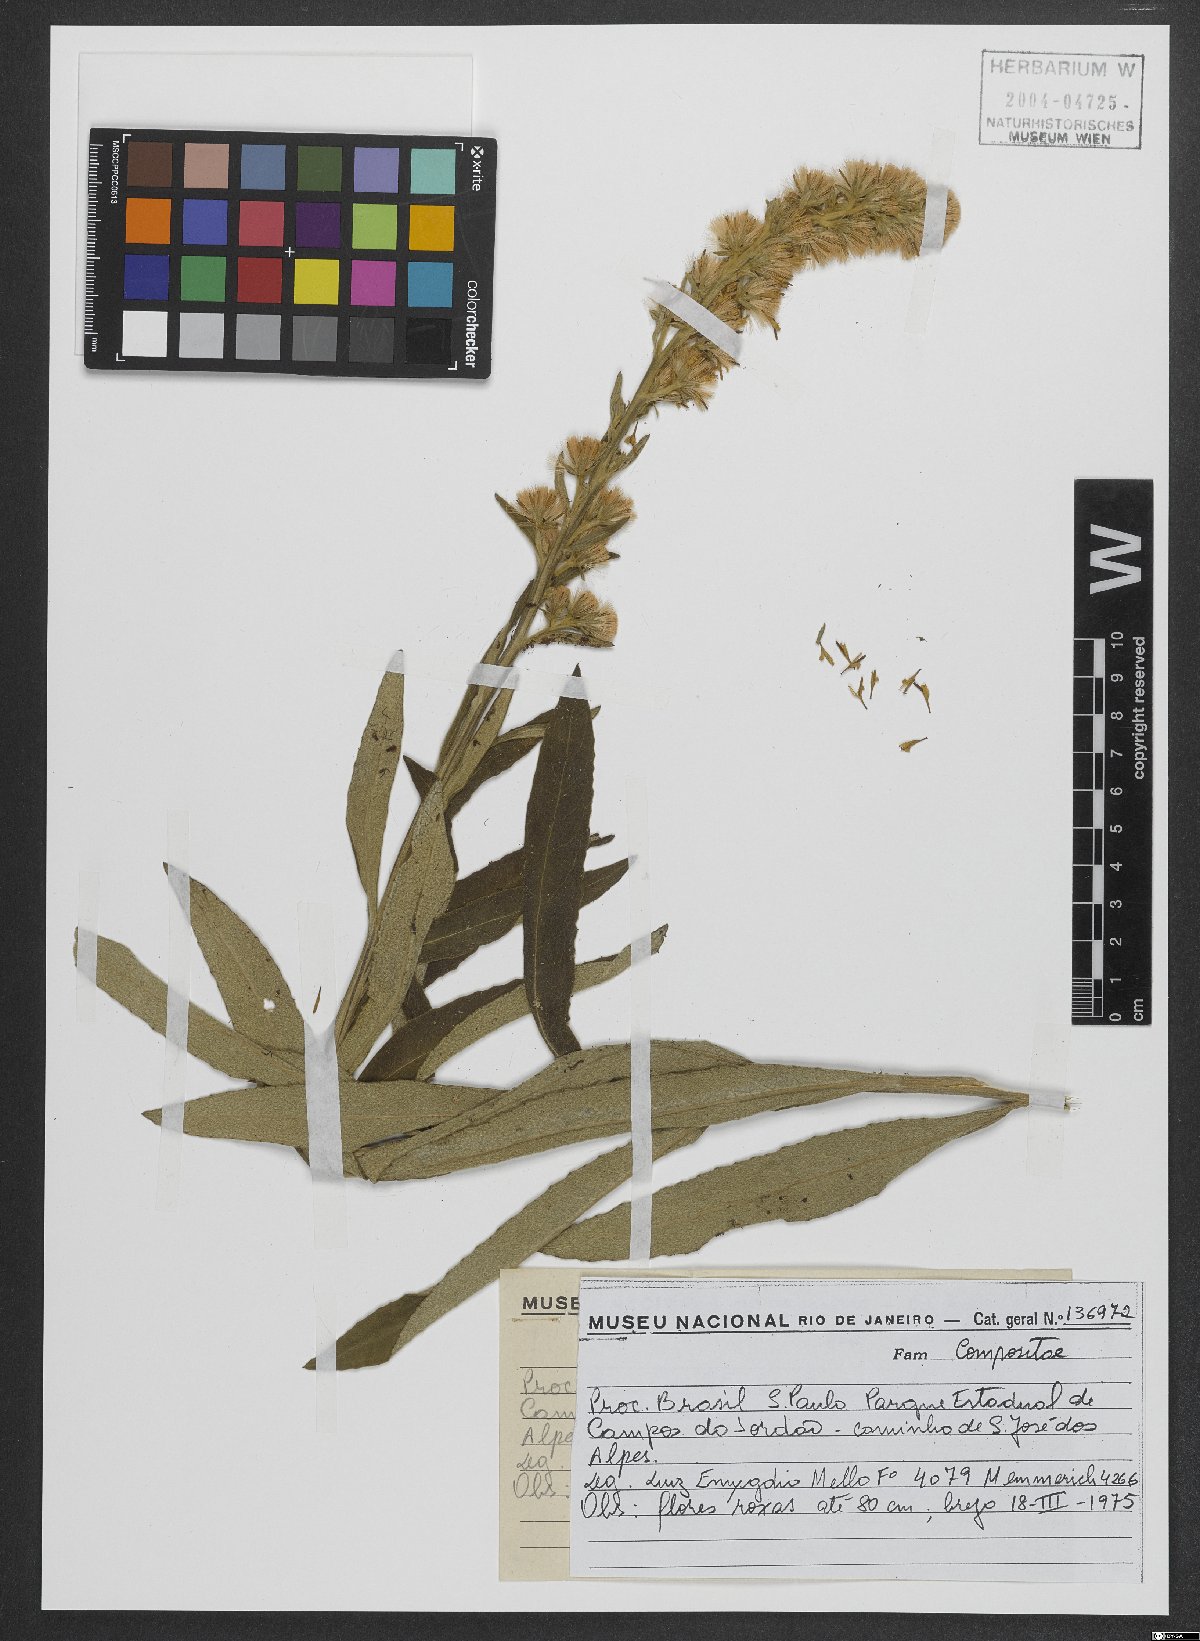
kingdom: Plantae
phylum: Tracheophyta
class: Magnoliopsida
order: Asterales
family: Asteraceae
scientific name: Asteraceae
